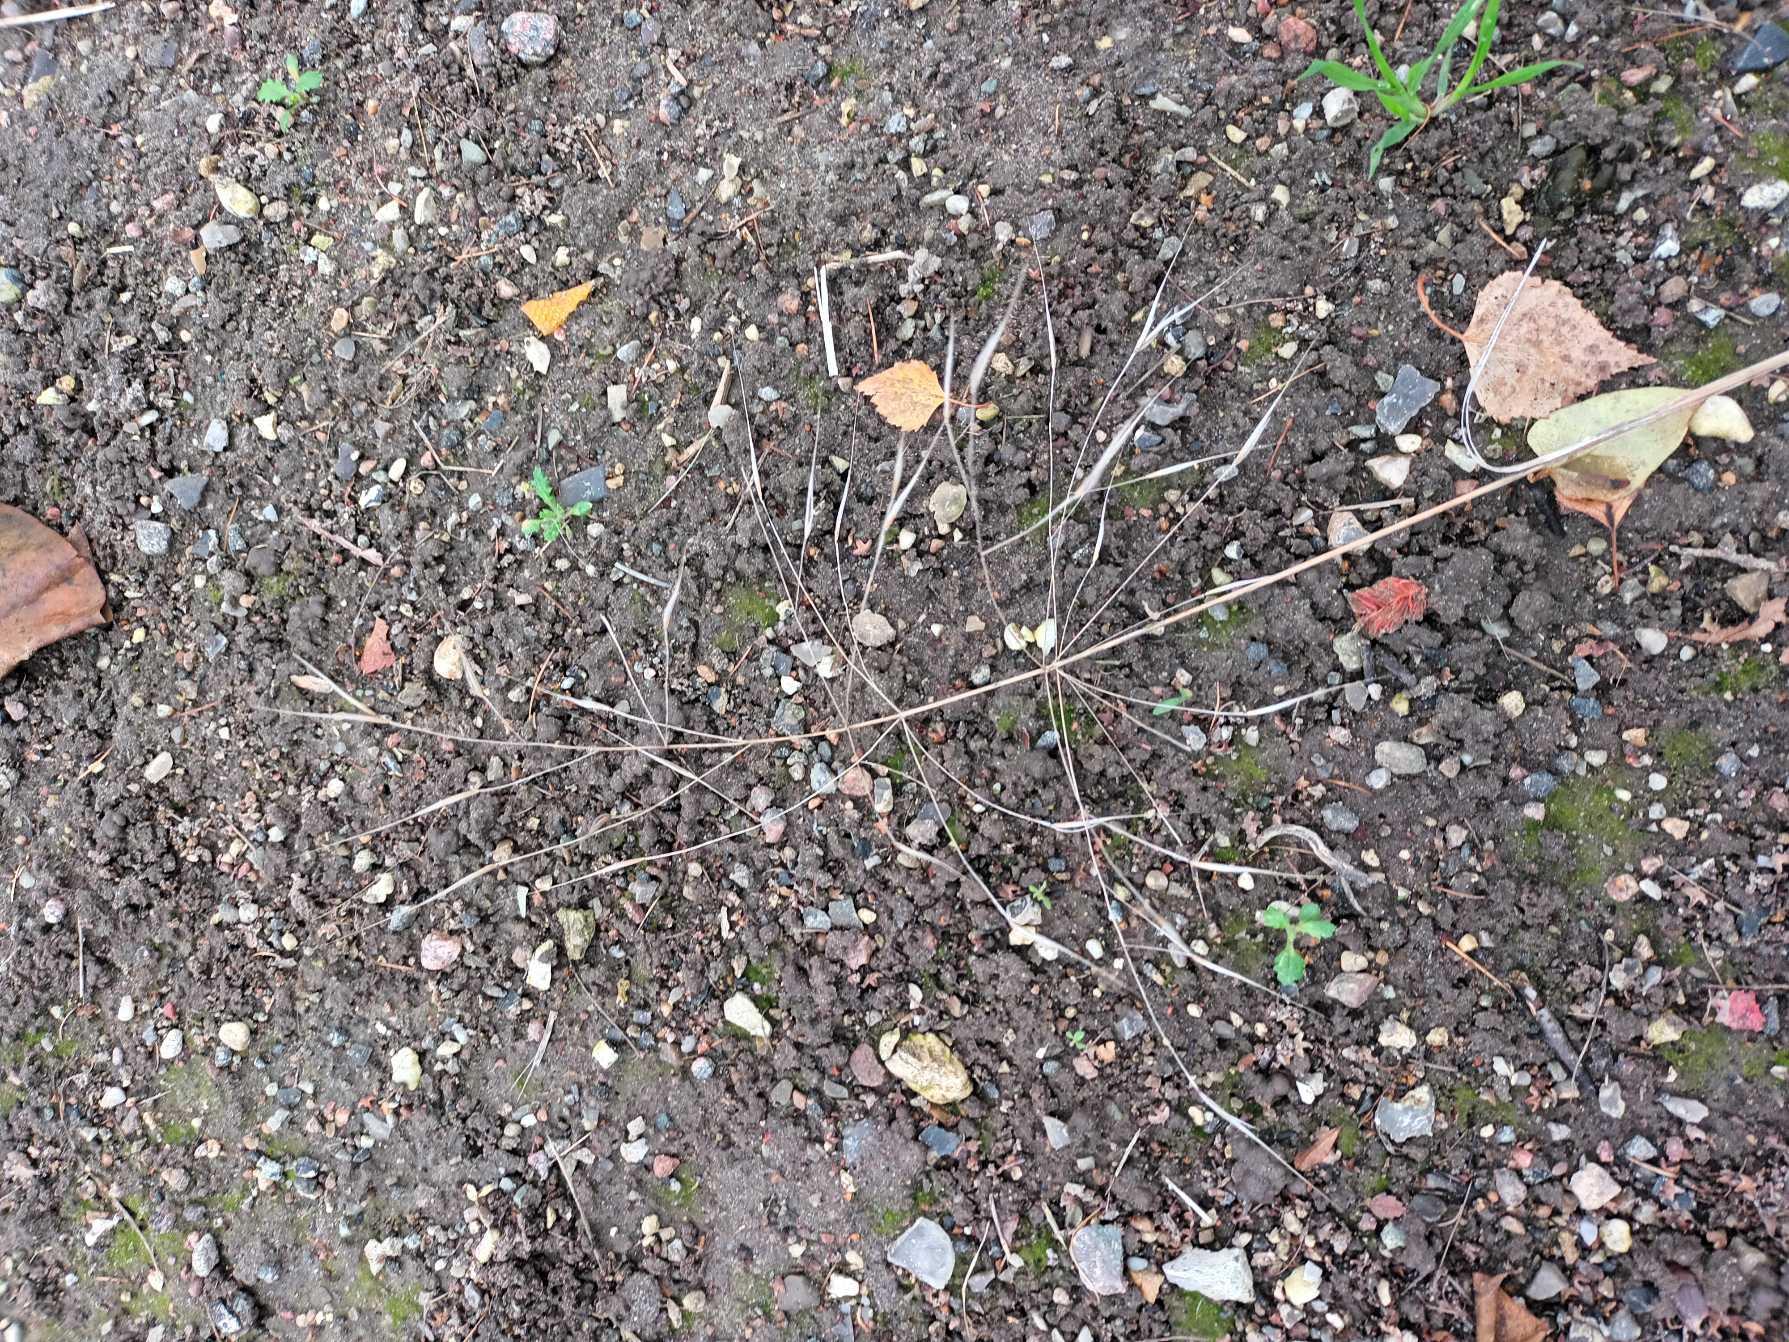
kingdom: Plantae
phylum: Tracheophyta
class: Liliopsida
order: Poales
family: Poaceae
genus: Bromus
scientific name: Bromus sterilis
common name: Gold hejre
